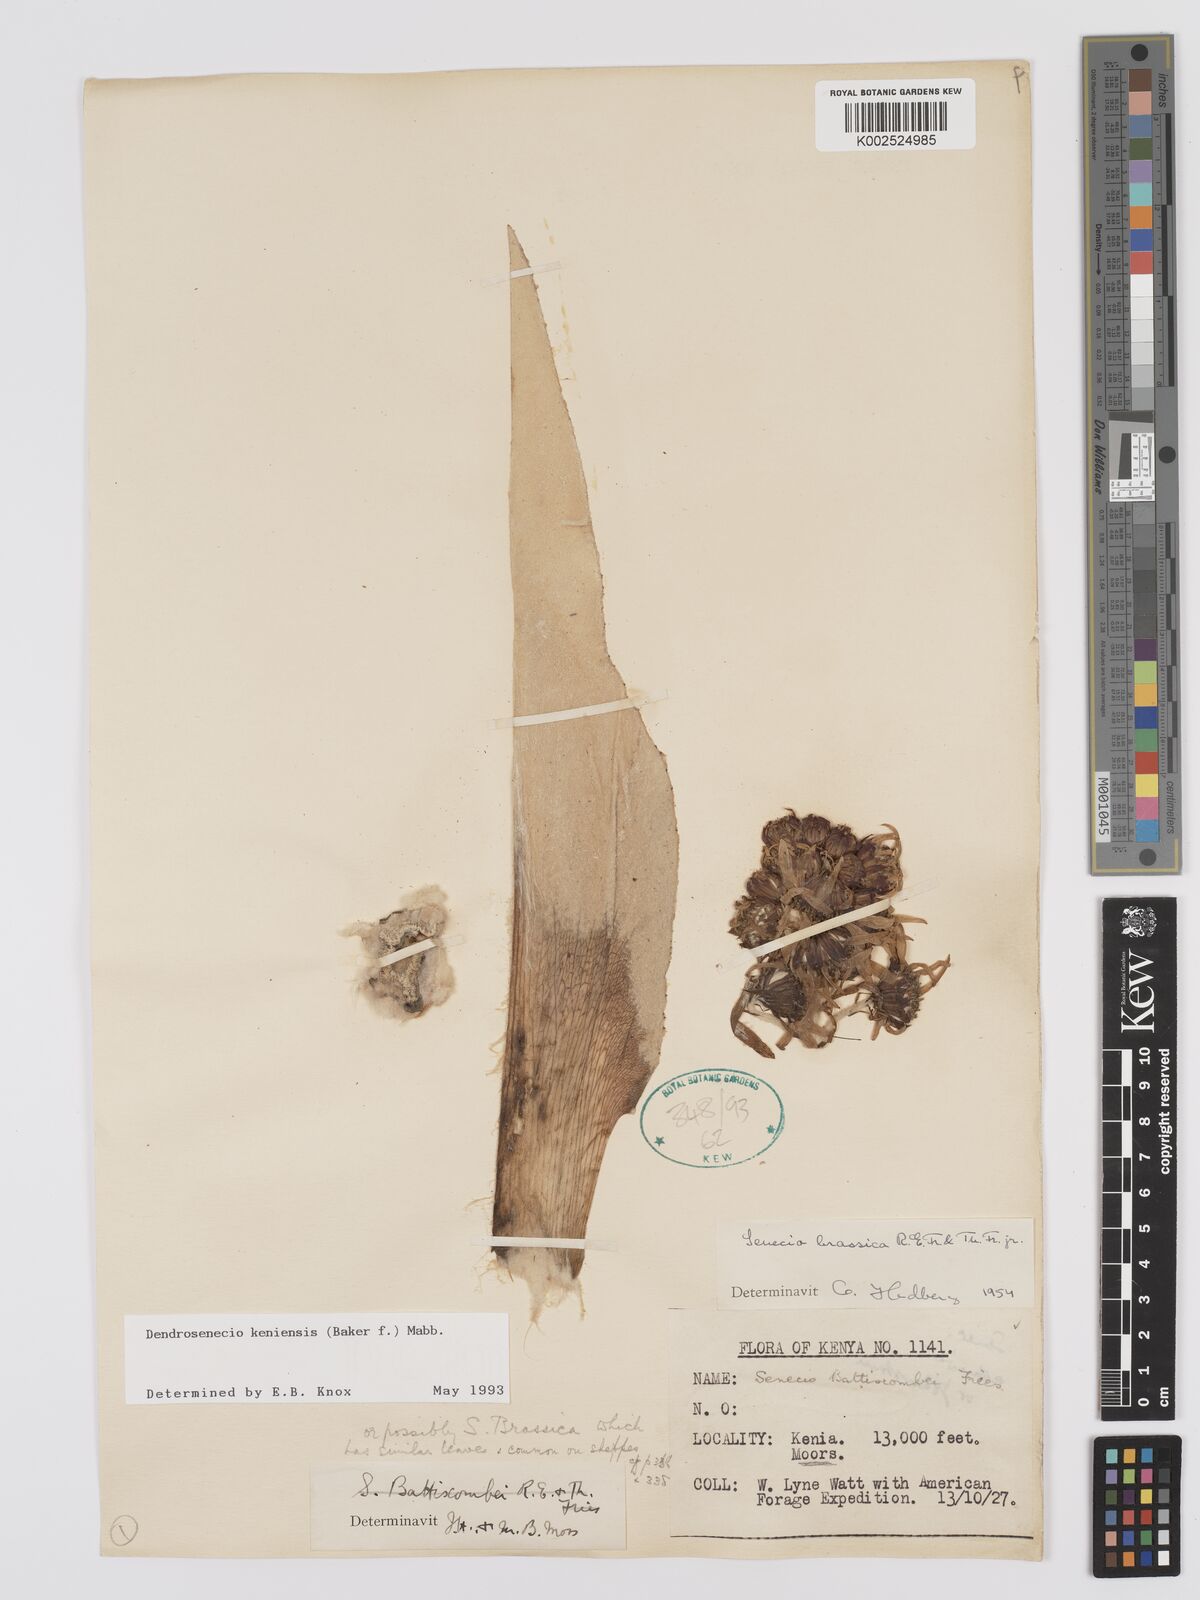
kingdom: Plantae
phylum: Tracheophyta
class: Magnoliopsida
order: Asterales
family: Asteraceae
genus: Dendrosenecio
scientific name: Dendrosenecio keniensis
